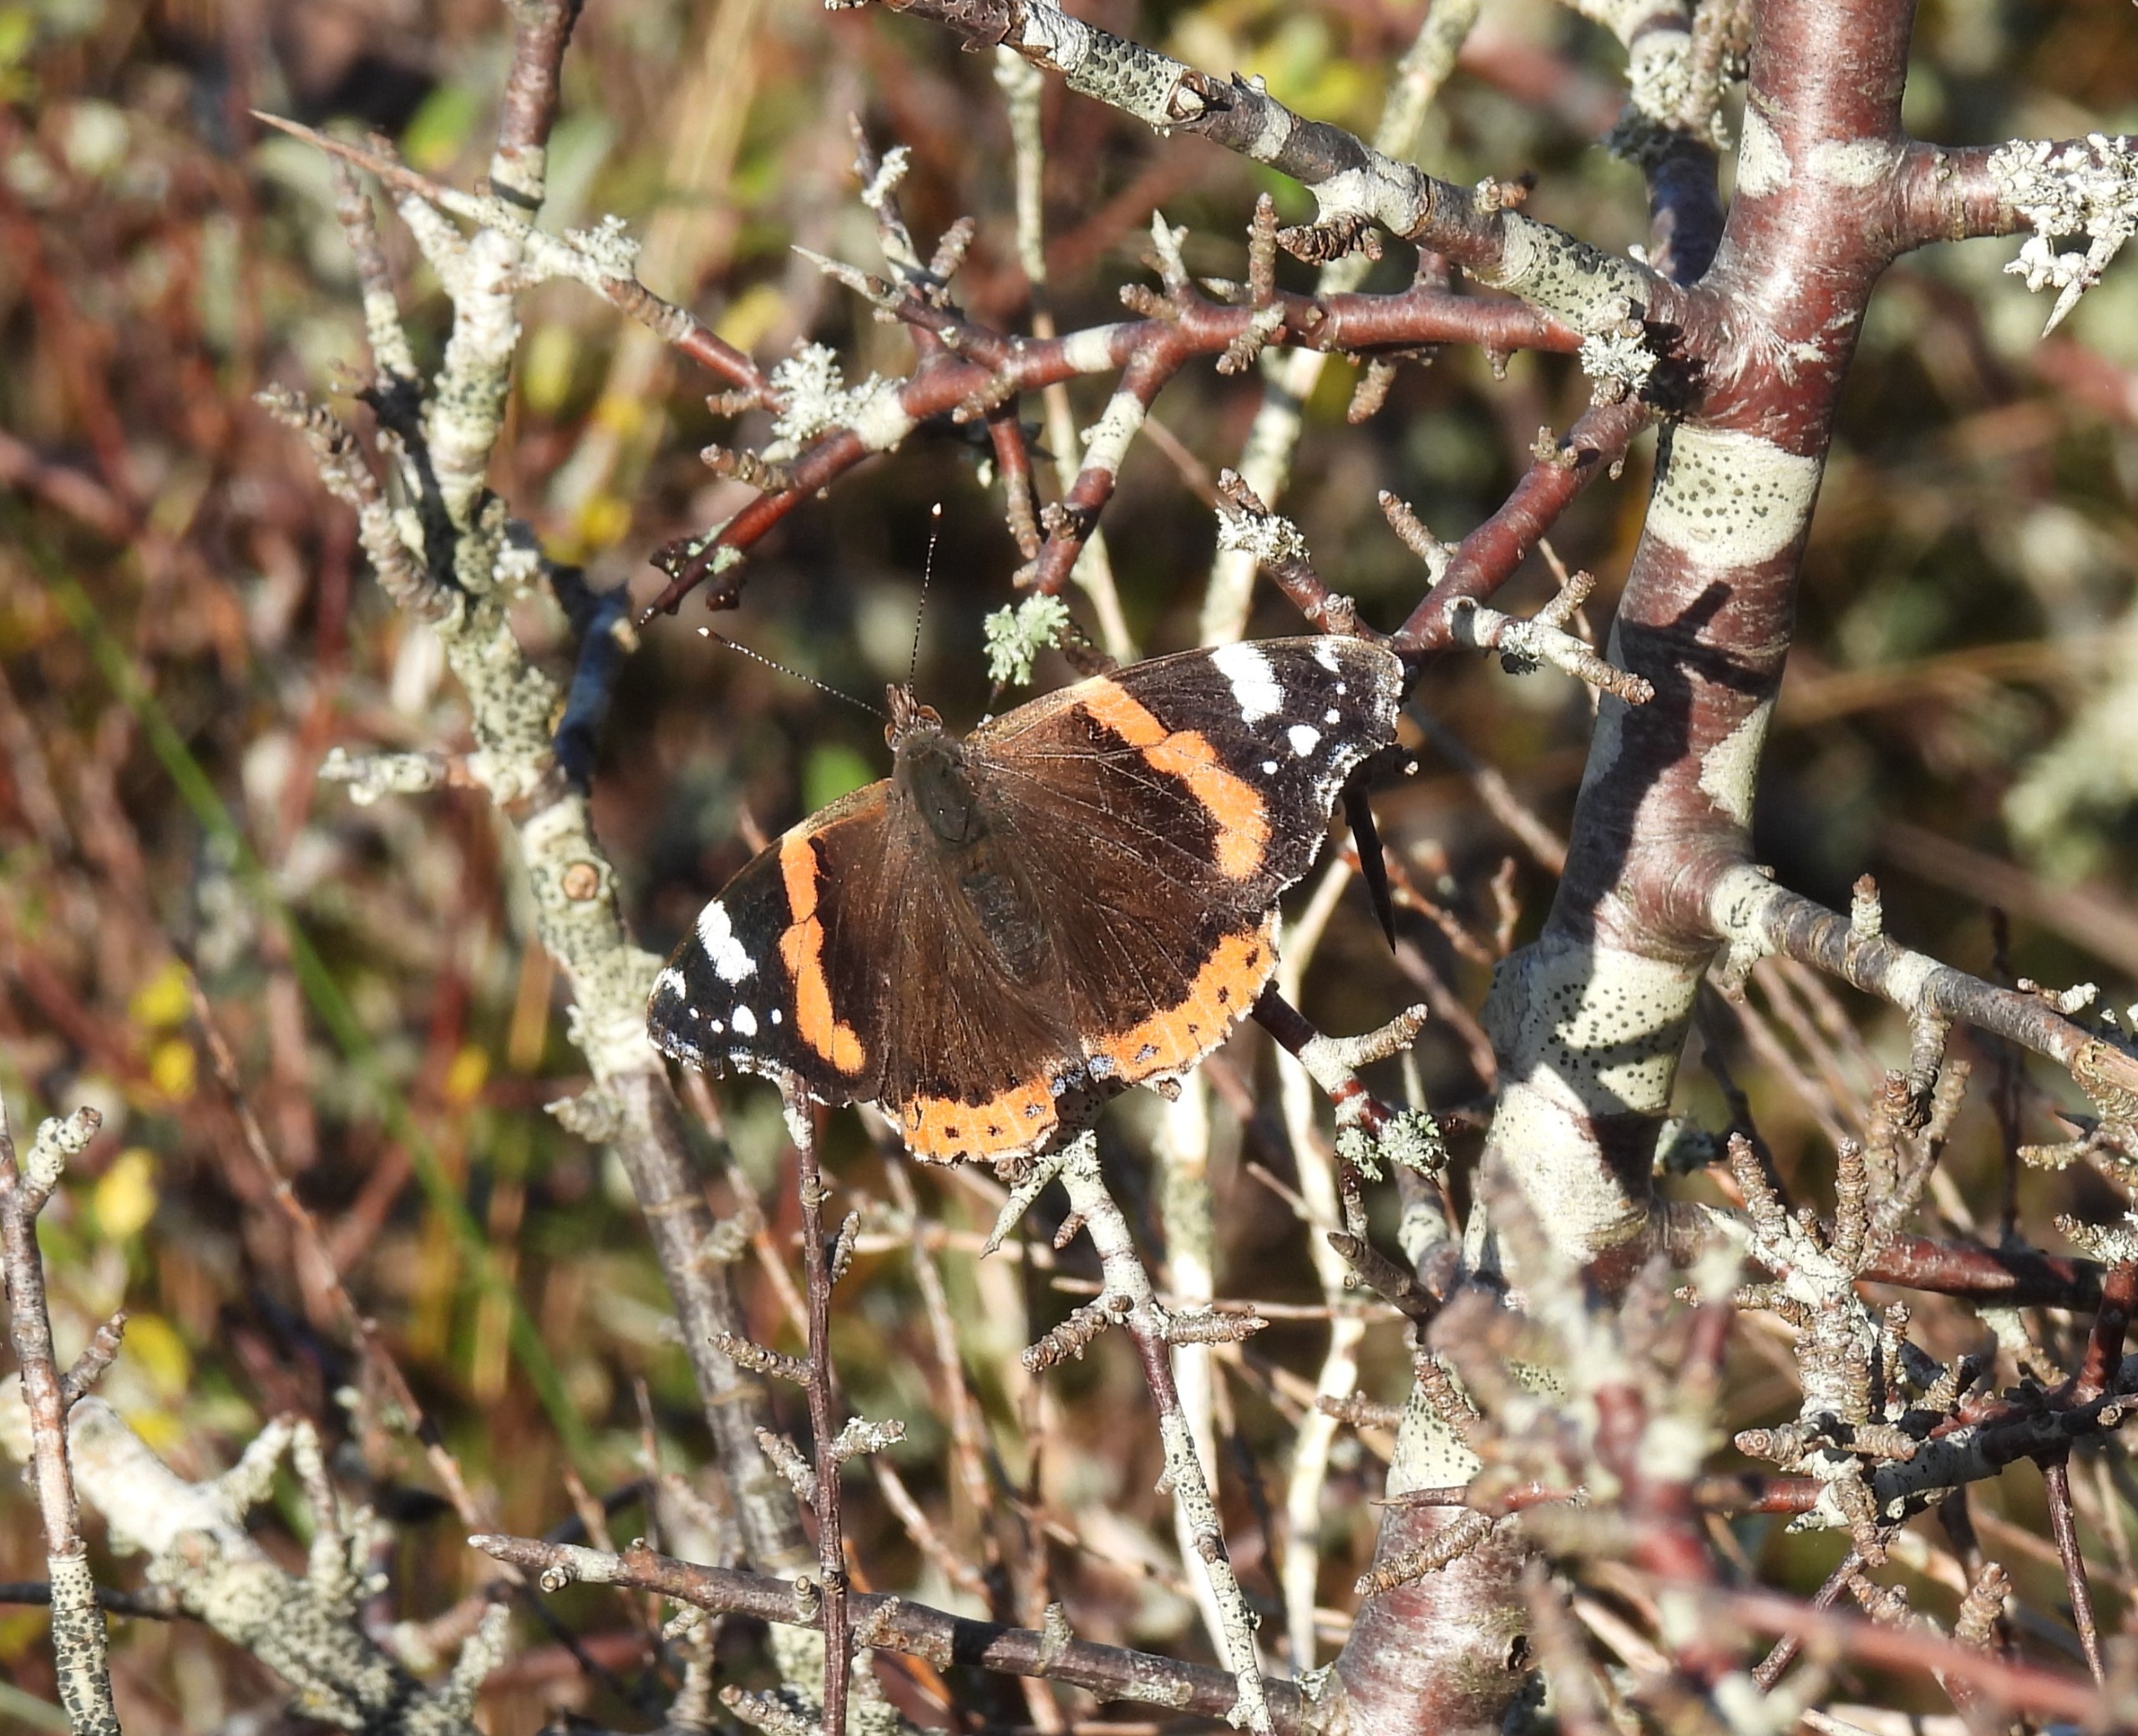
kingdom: Animalia
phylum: Arthropoda
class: Insecta
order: Lepidoptera
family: Nymphalidae
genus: Vanessa
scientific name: Vanessa atalanta
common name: Admiral
